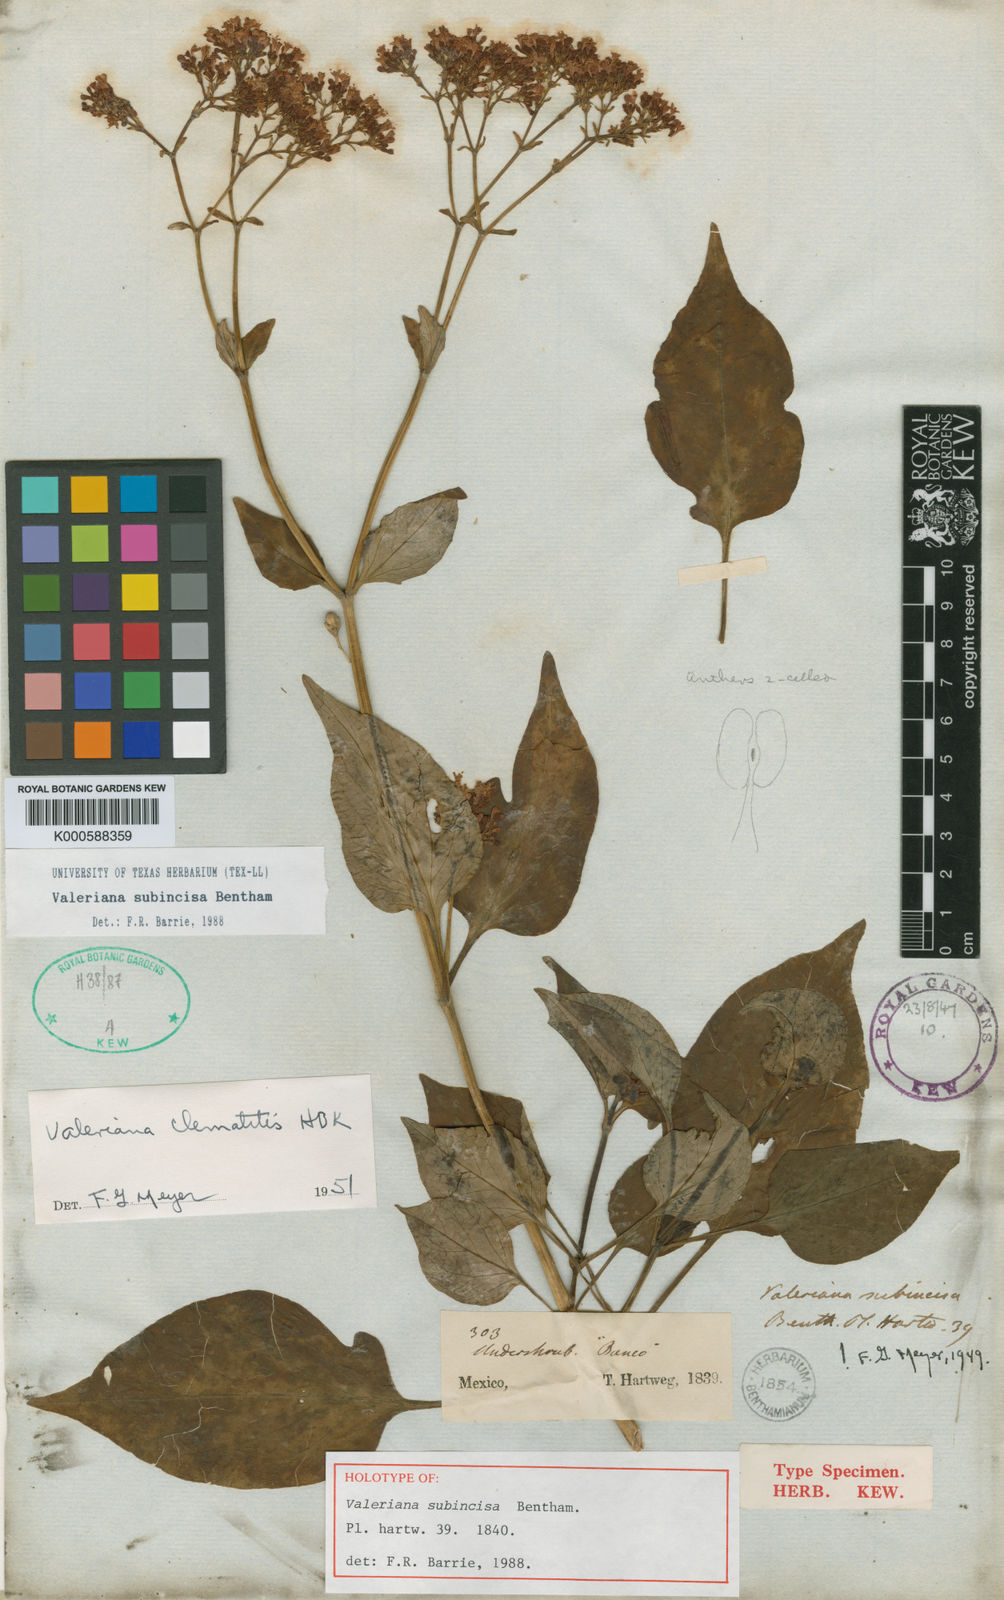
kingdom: Plantae
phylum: Tracheophyta
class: Magnoliopsida
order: Dipsacales
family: Caprifoliaceae
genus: Valeriana
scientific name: Valeriana subincisa
